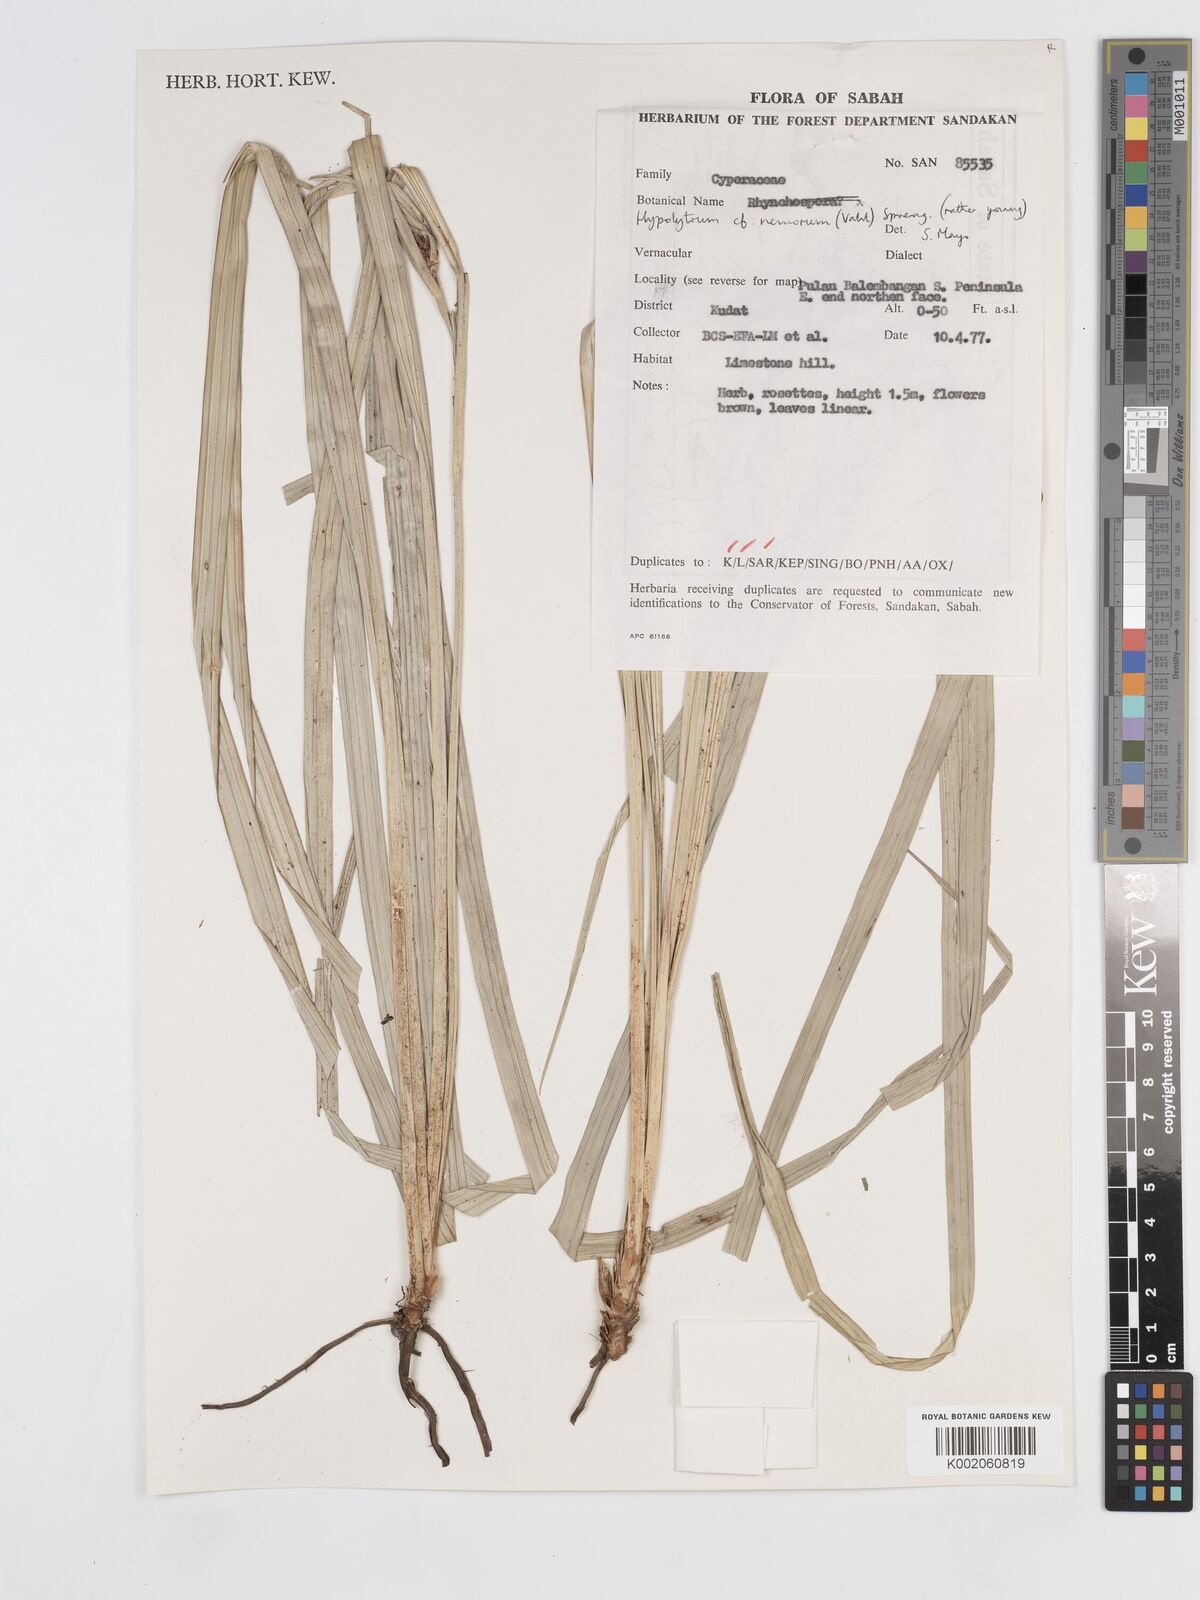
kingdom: Plantae
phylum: Tracheophyta
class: Liliopsida
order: Poales
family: Cyperaceae
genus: Hypolytrum
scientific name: Hypolytrum nemorum
